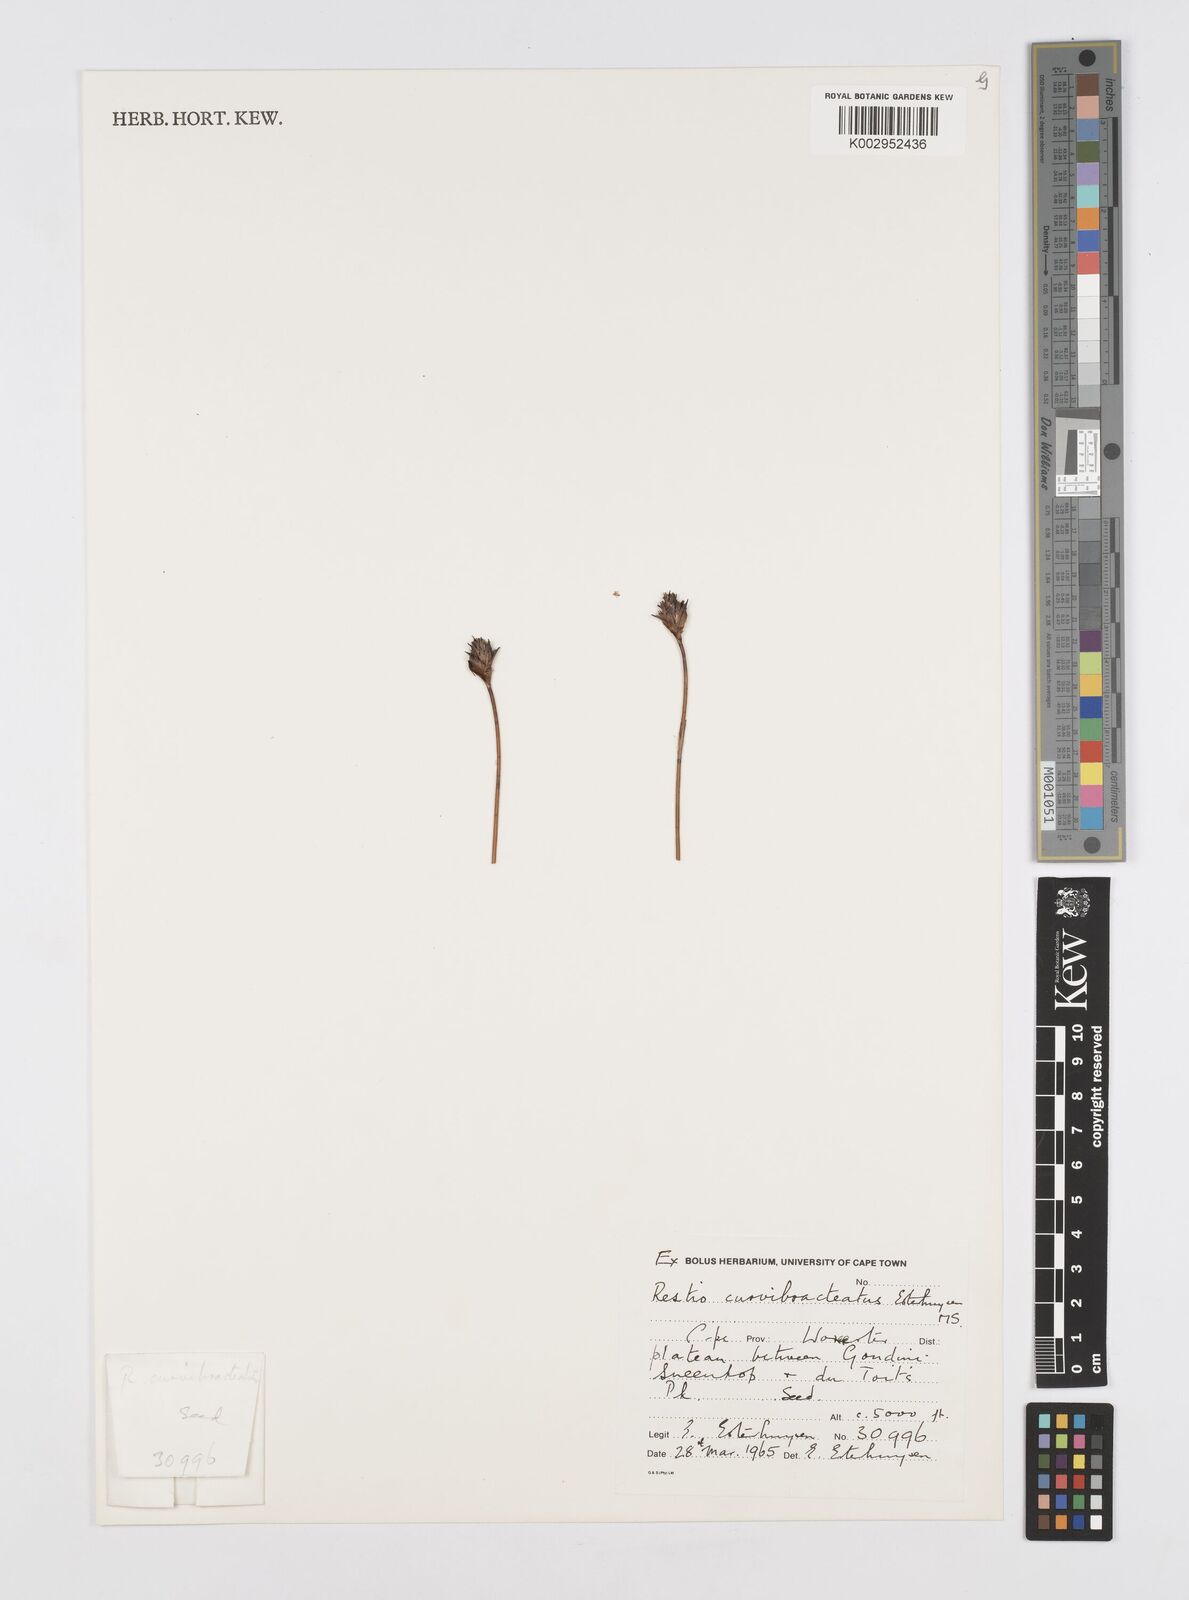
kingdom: Plantae
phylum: Tracheophyta
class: Liliopsida
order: Poales
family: Restionaceae
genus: Restio
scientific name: Restio curvibracteatus
